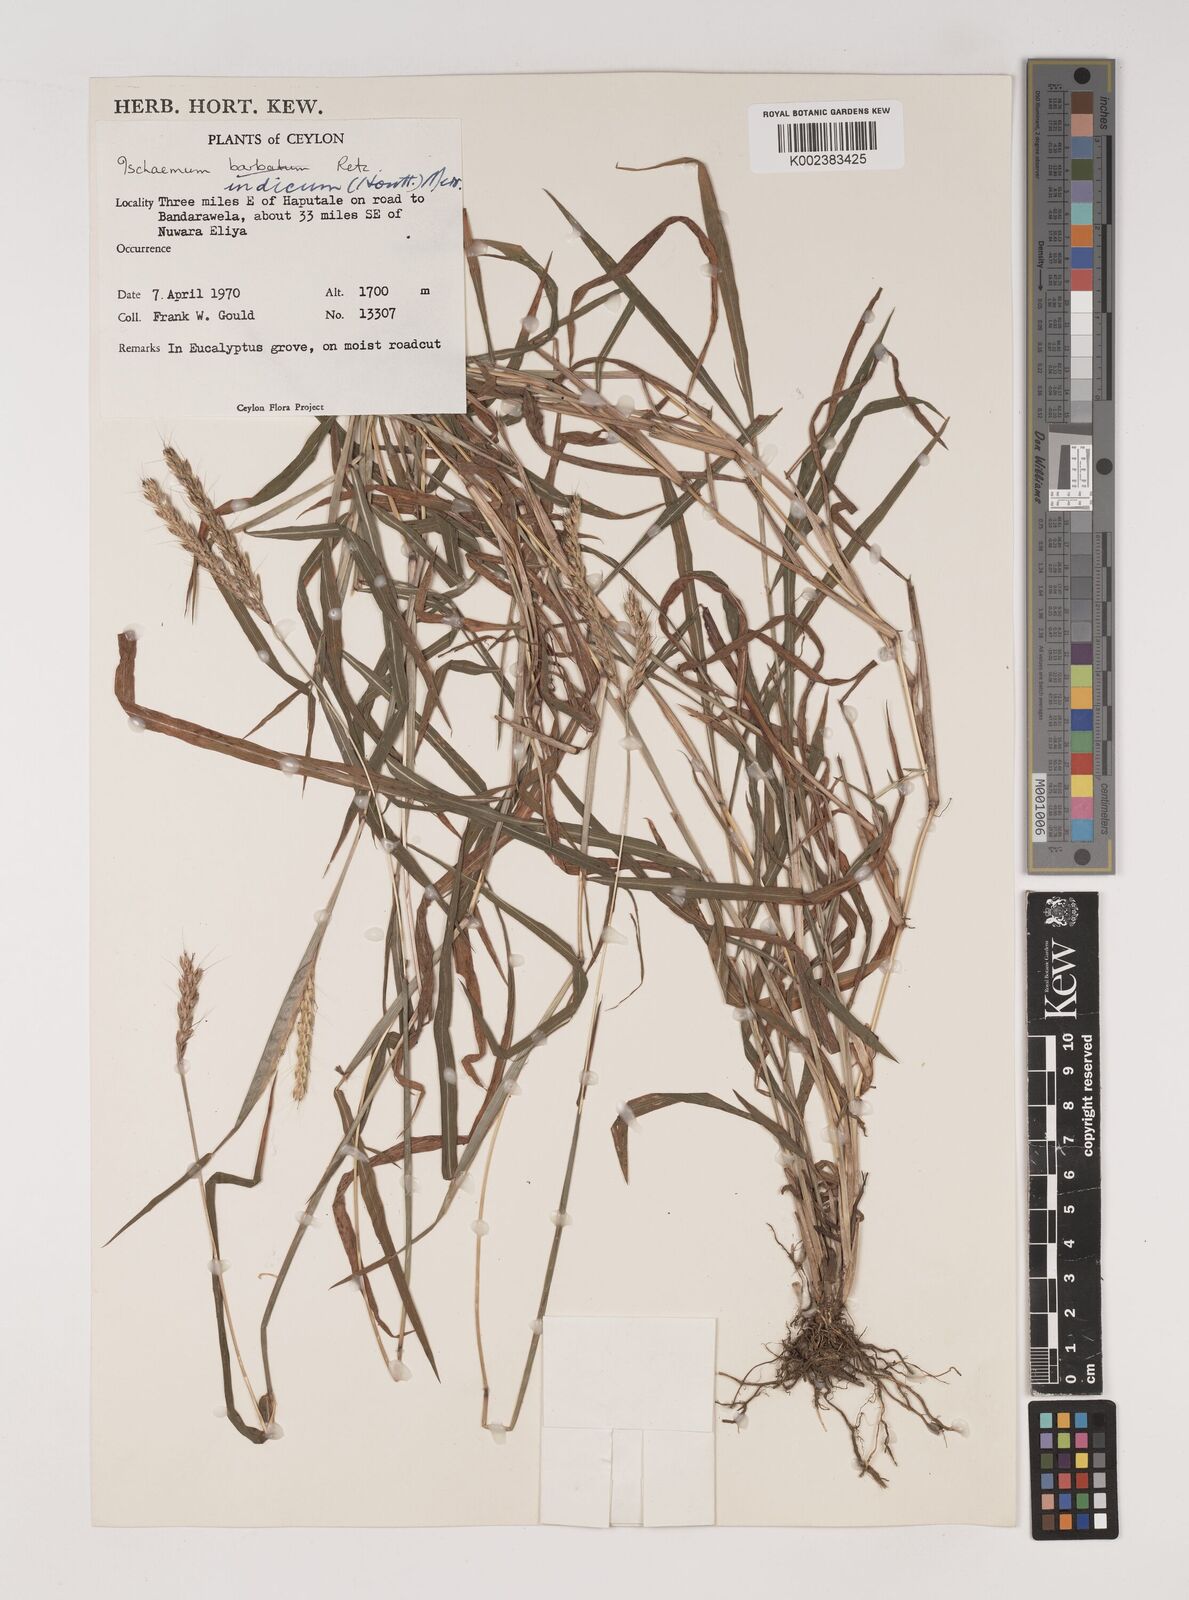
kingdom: Plantae
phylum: Tracheophyta
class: Liliopsida
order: Poales
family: Poaceae
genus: Polytrias
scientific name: Polytrias indica
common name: Indian murainagrass
